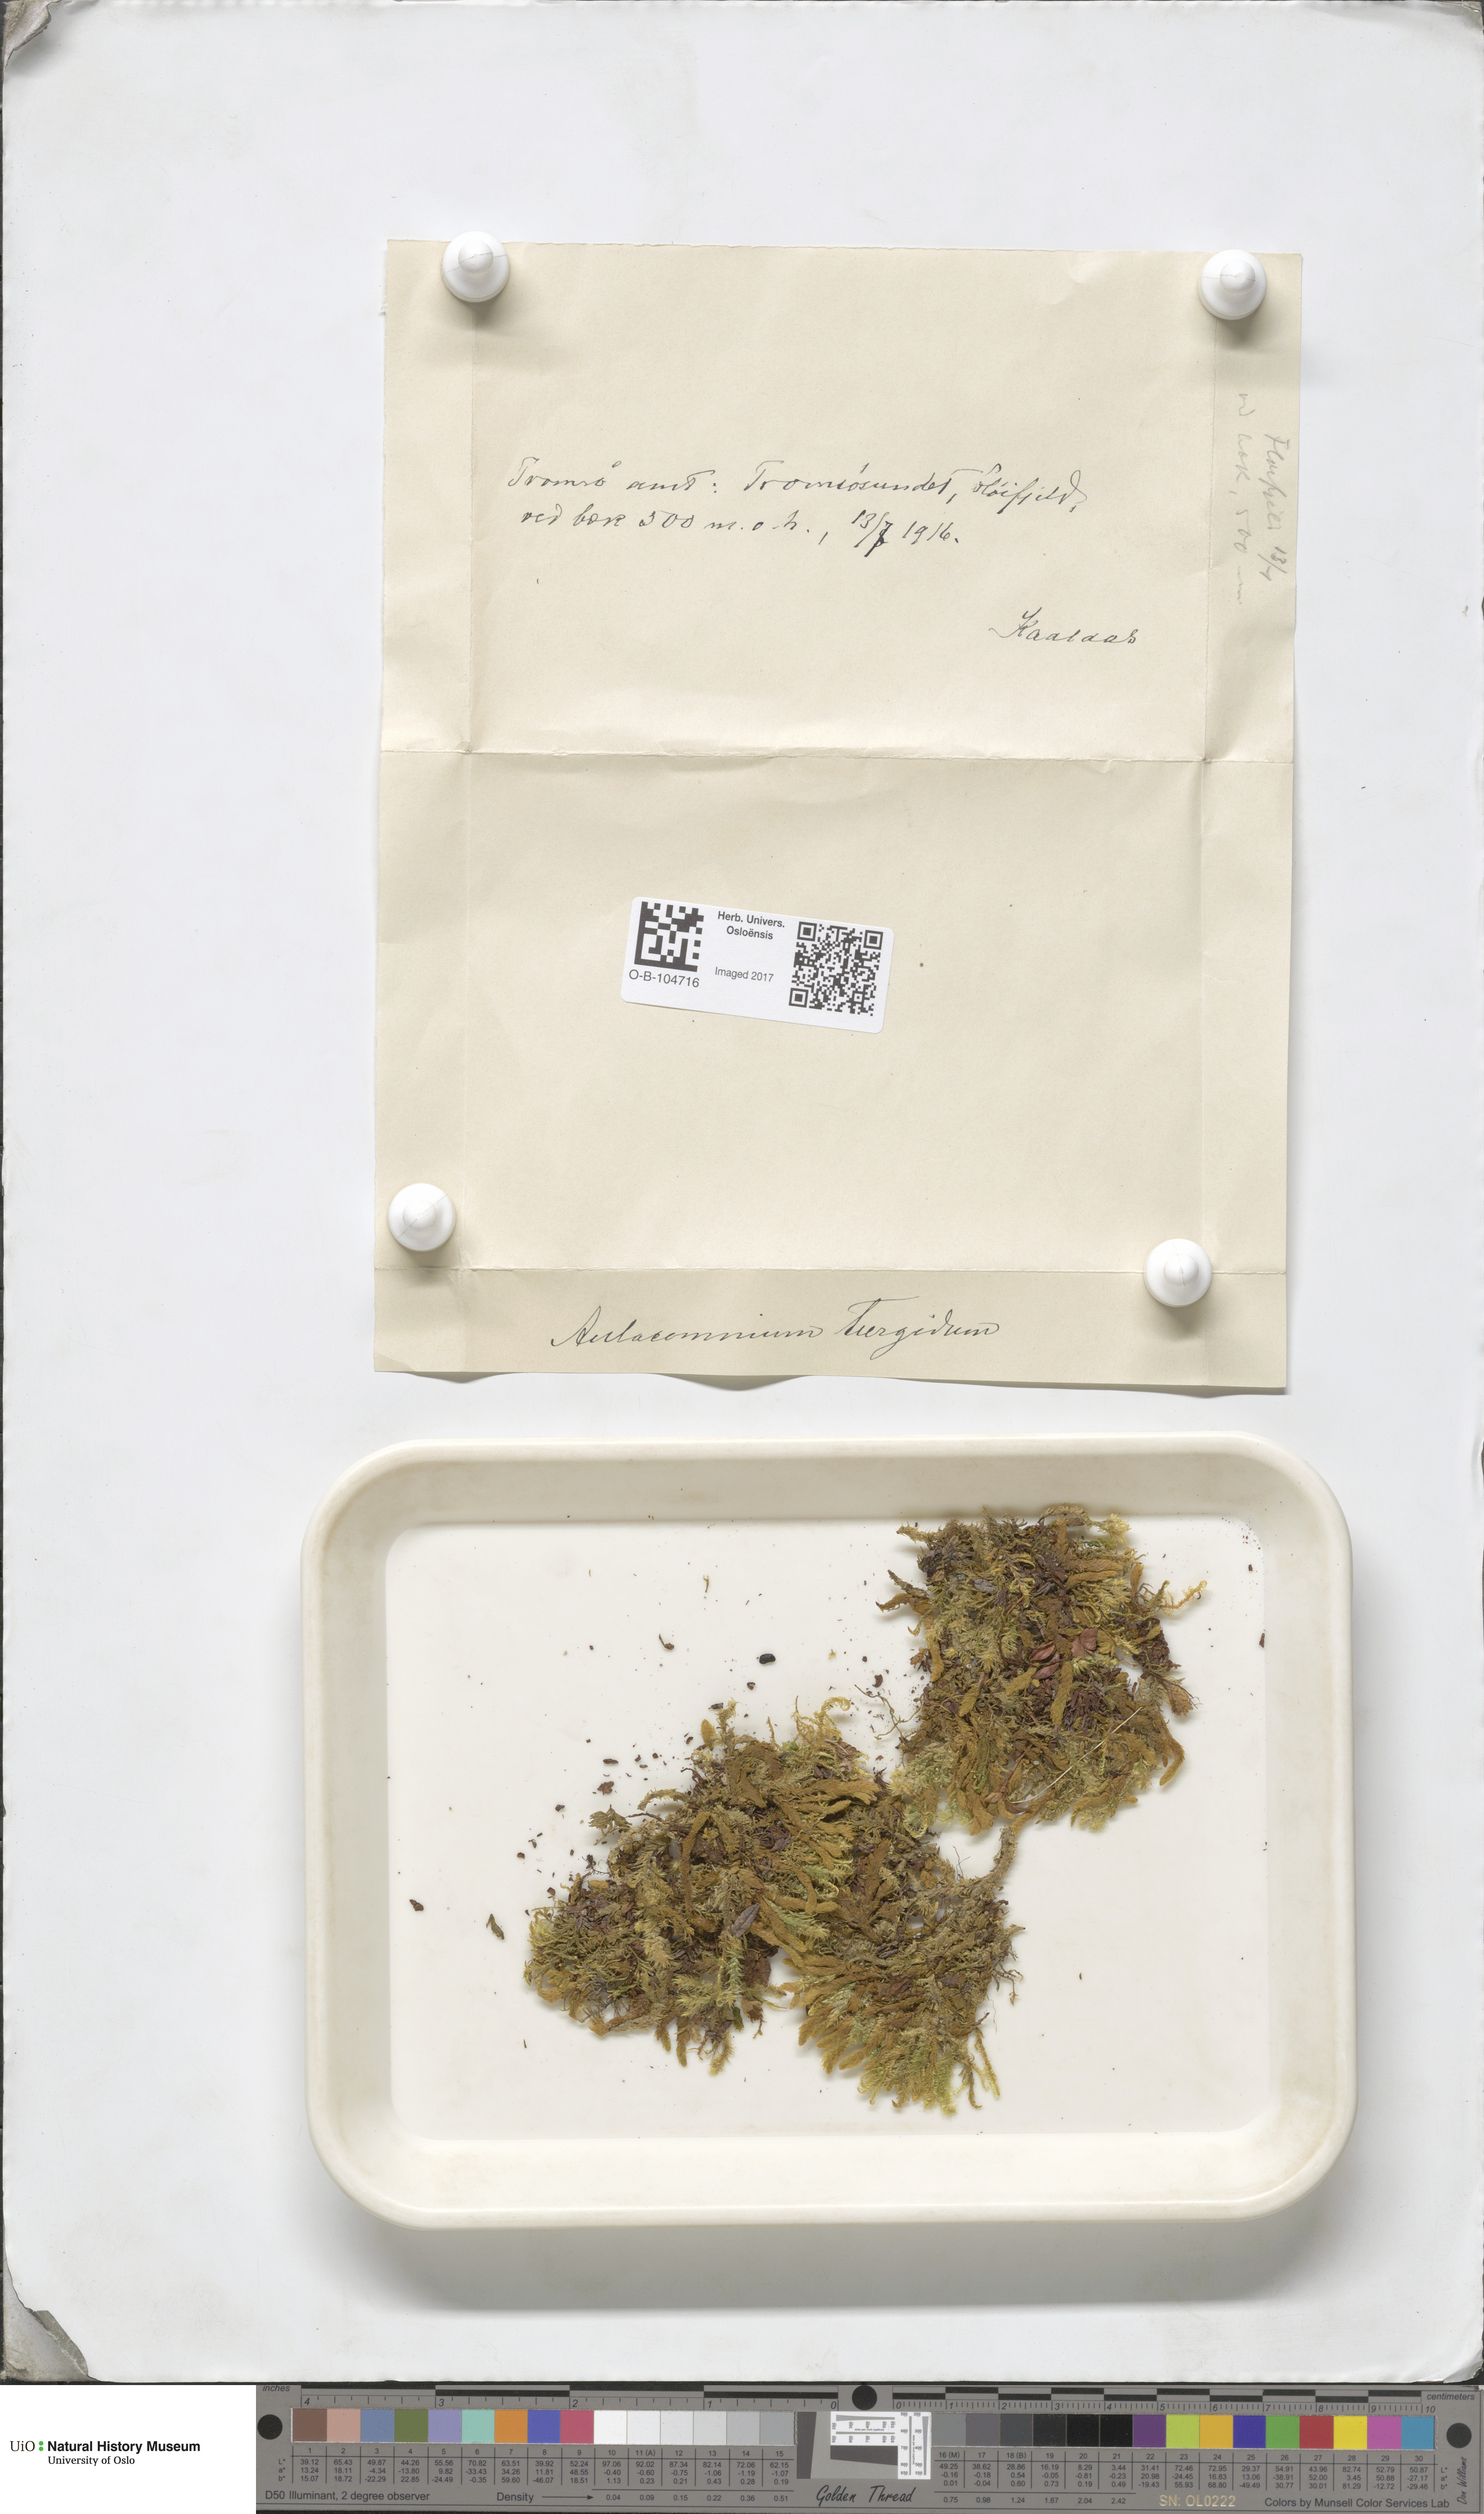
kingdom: Plantae
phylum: Bryophyta
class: Bryopsida
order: Aulacomniales
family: Aulacomniaceae
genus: Aulacomnium
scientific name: Aulacomnium turgidum
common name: Mountain groove moss
